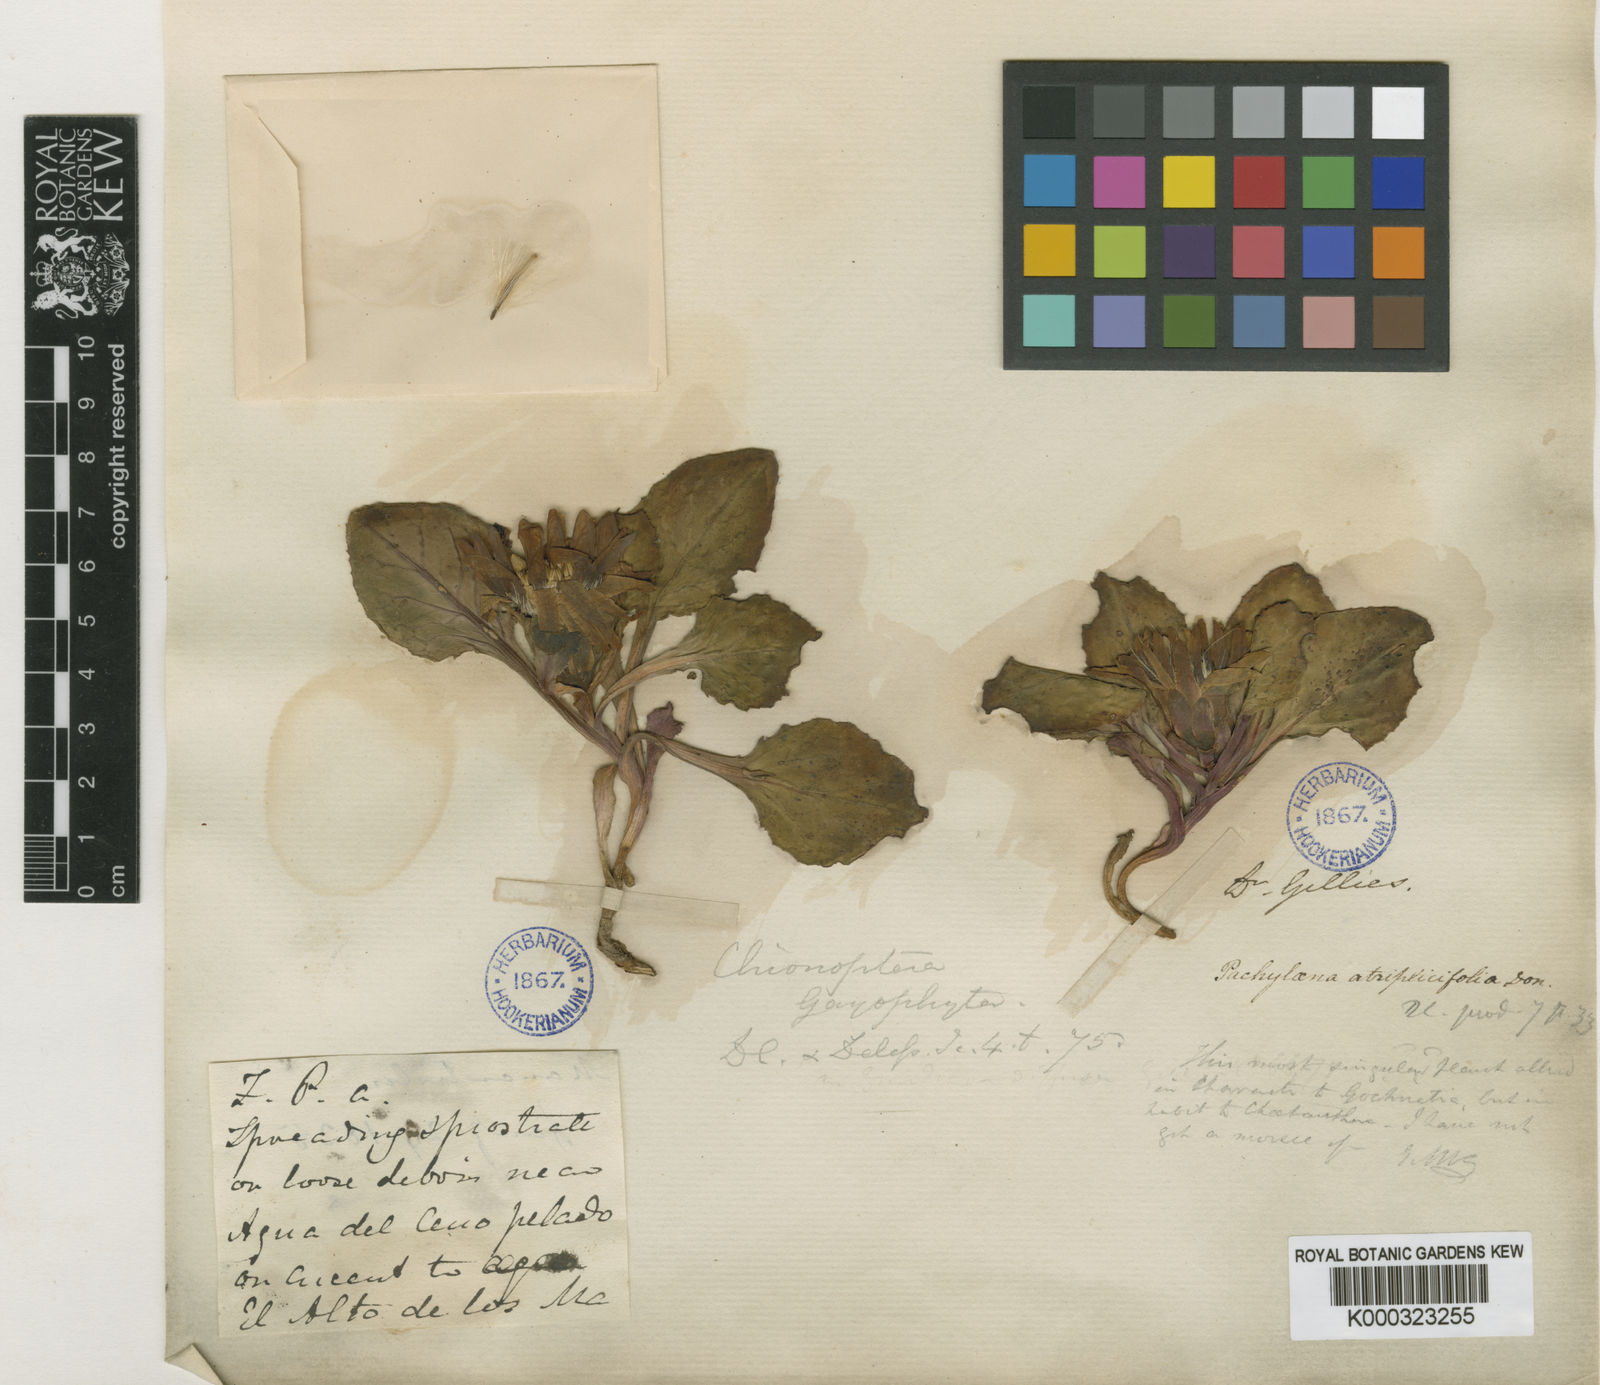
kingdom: Plantae
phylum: Tracheophyta
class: Magnoliopsida
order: Asterales
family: Asteraceae
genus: Pachylaena
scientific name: Pachylaena atriplicifolia
